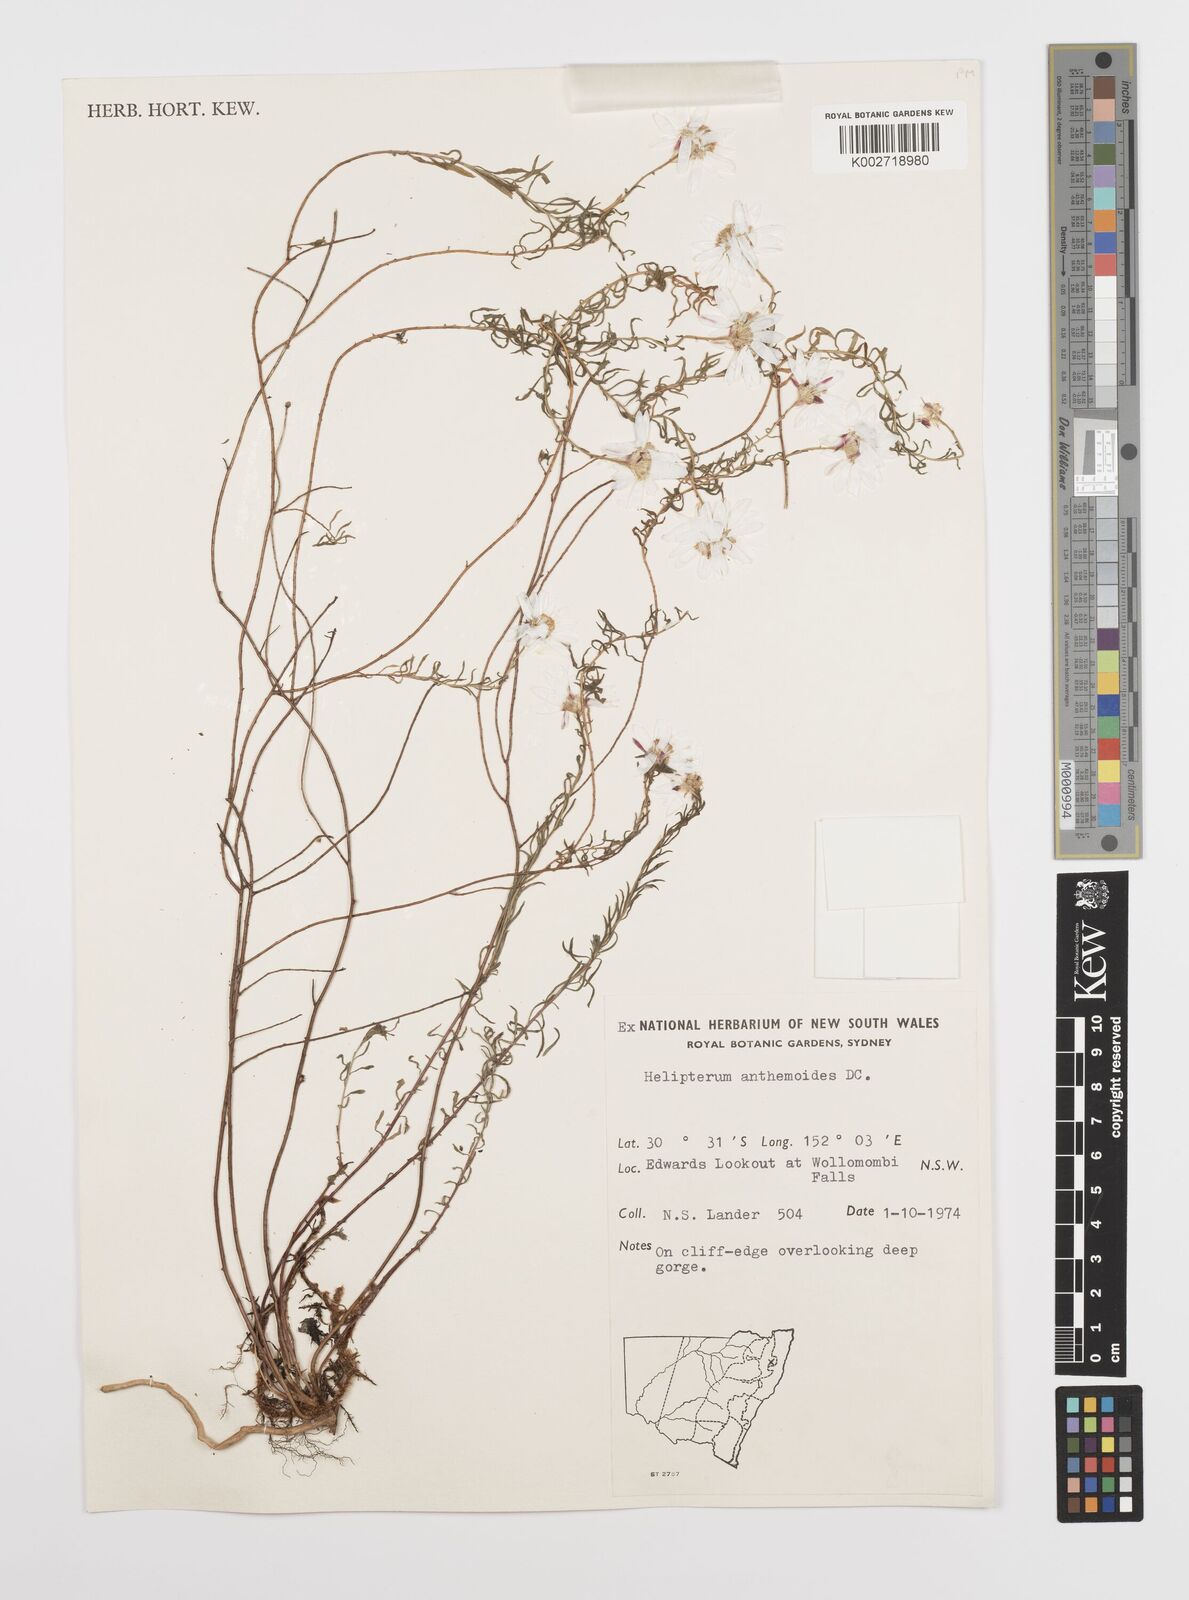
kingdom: Plantae
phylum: Tracheophyta
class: Magnoliopsida
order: Asterales
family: Asteraceae
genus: Rhodanthe
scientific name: Rhodanthe anthemoides
